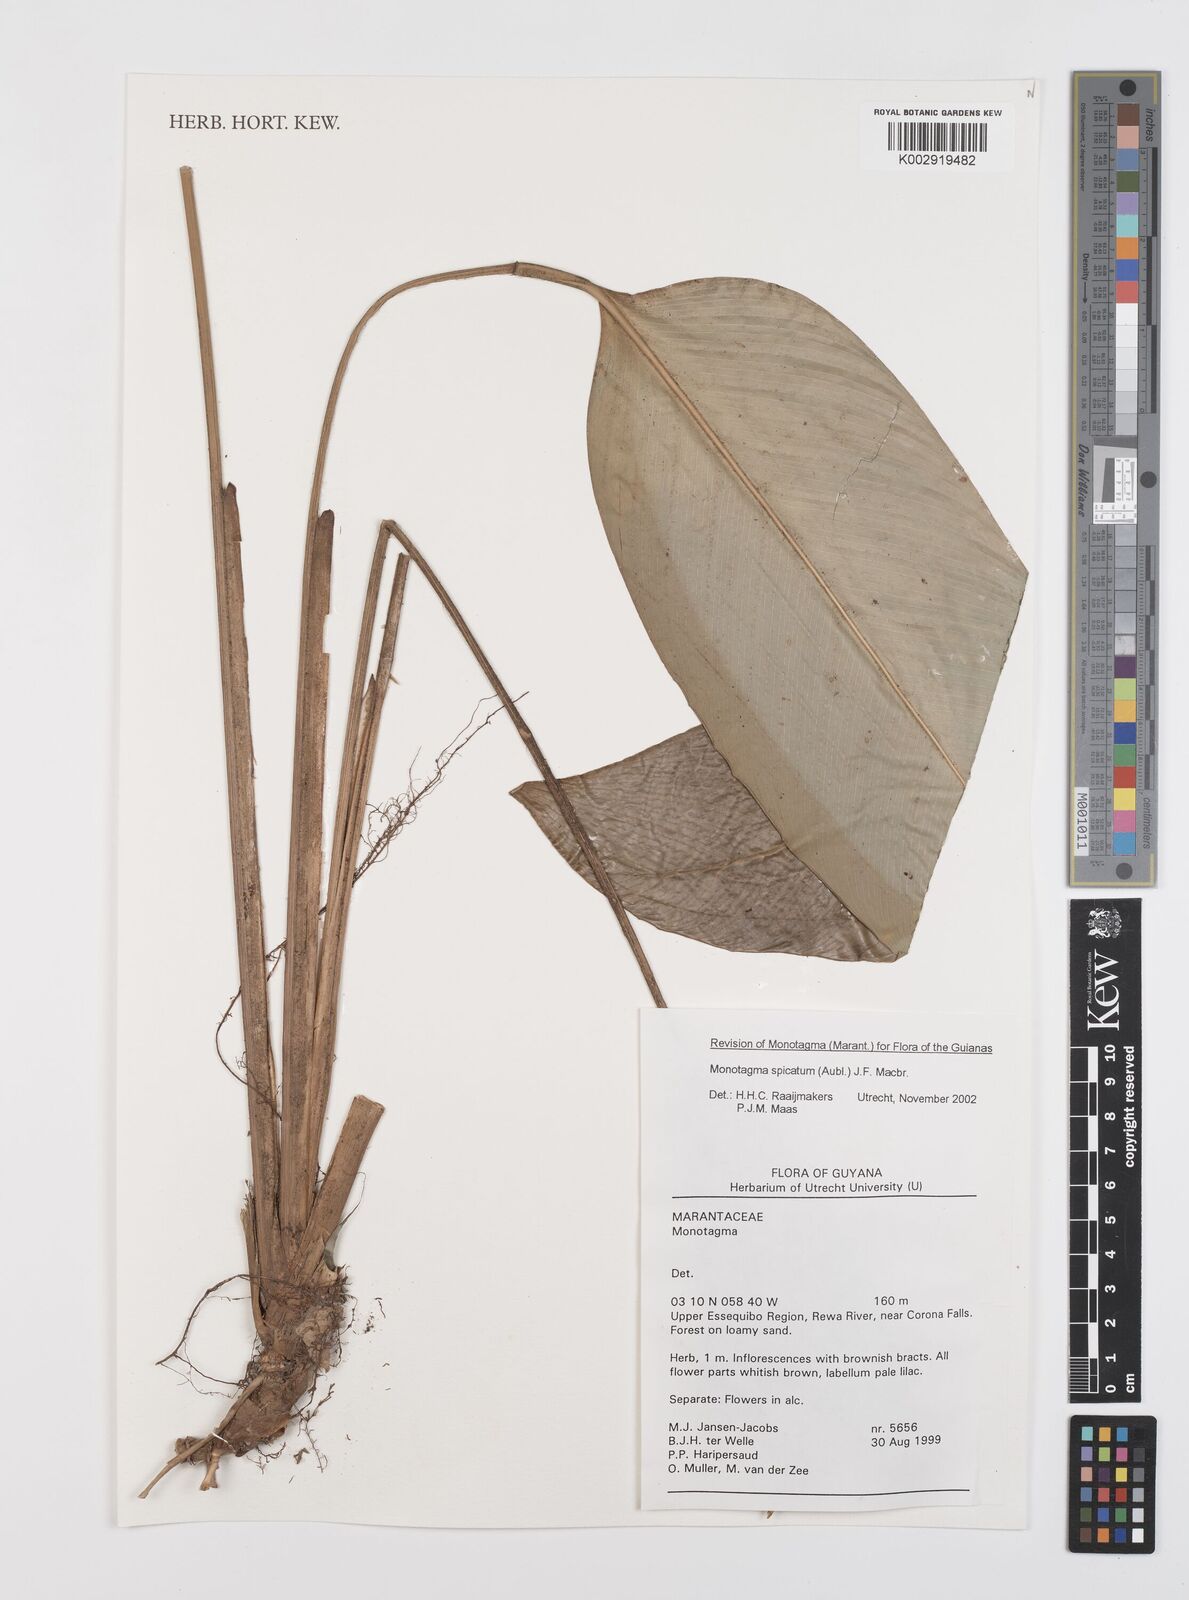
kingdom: Plantae
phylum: Tracheophyta
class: Liliopsida
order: Zingiberales
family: Marantaceae
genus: Monotagma
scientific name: Monotagma spicatum
